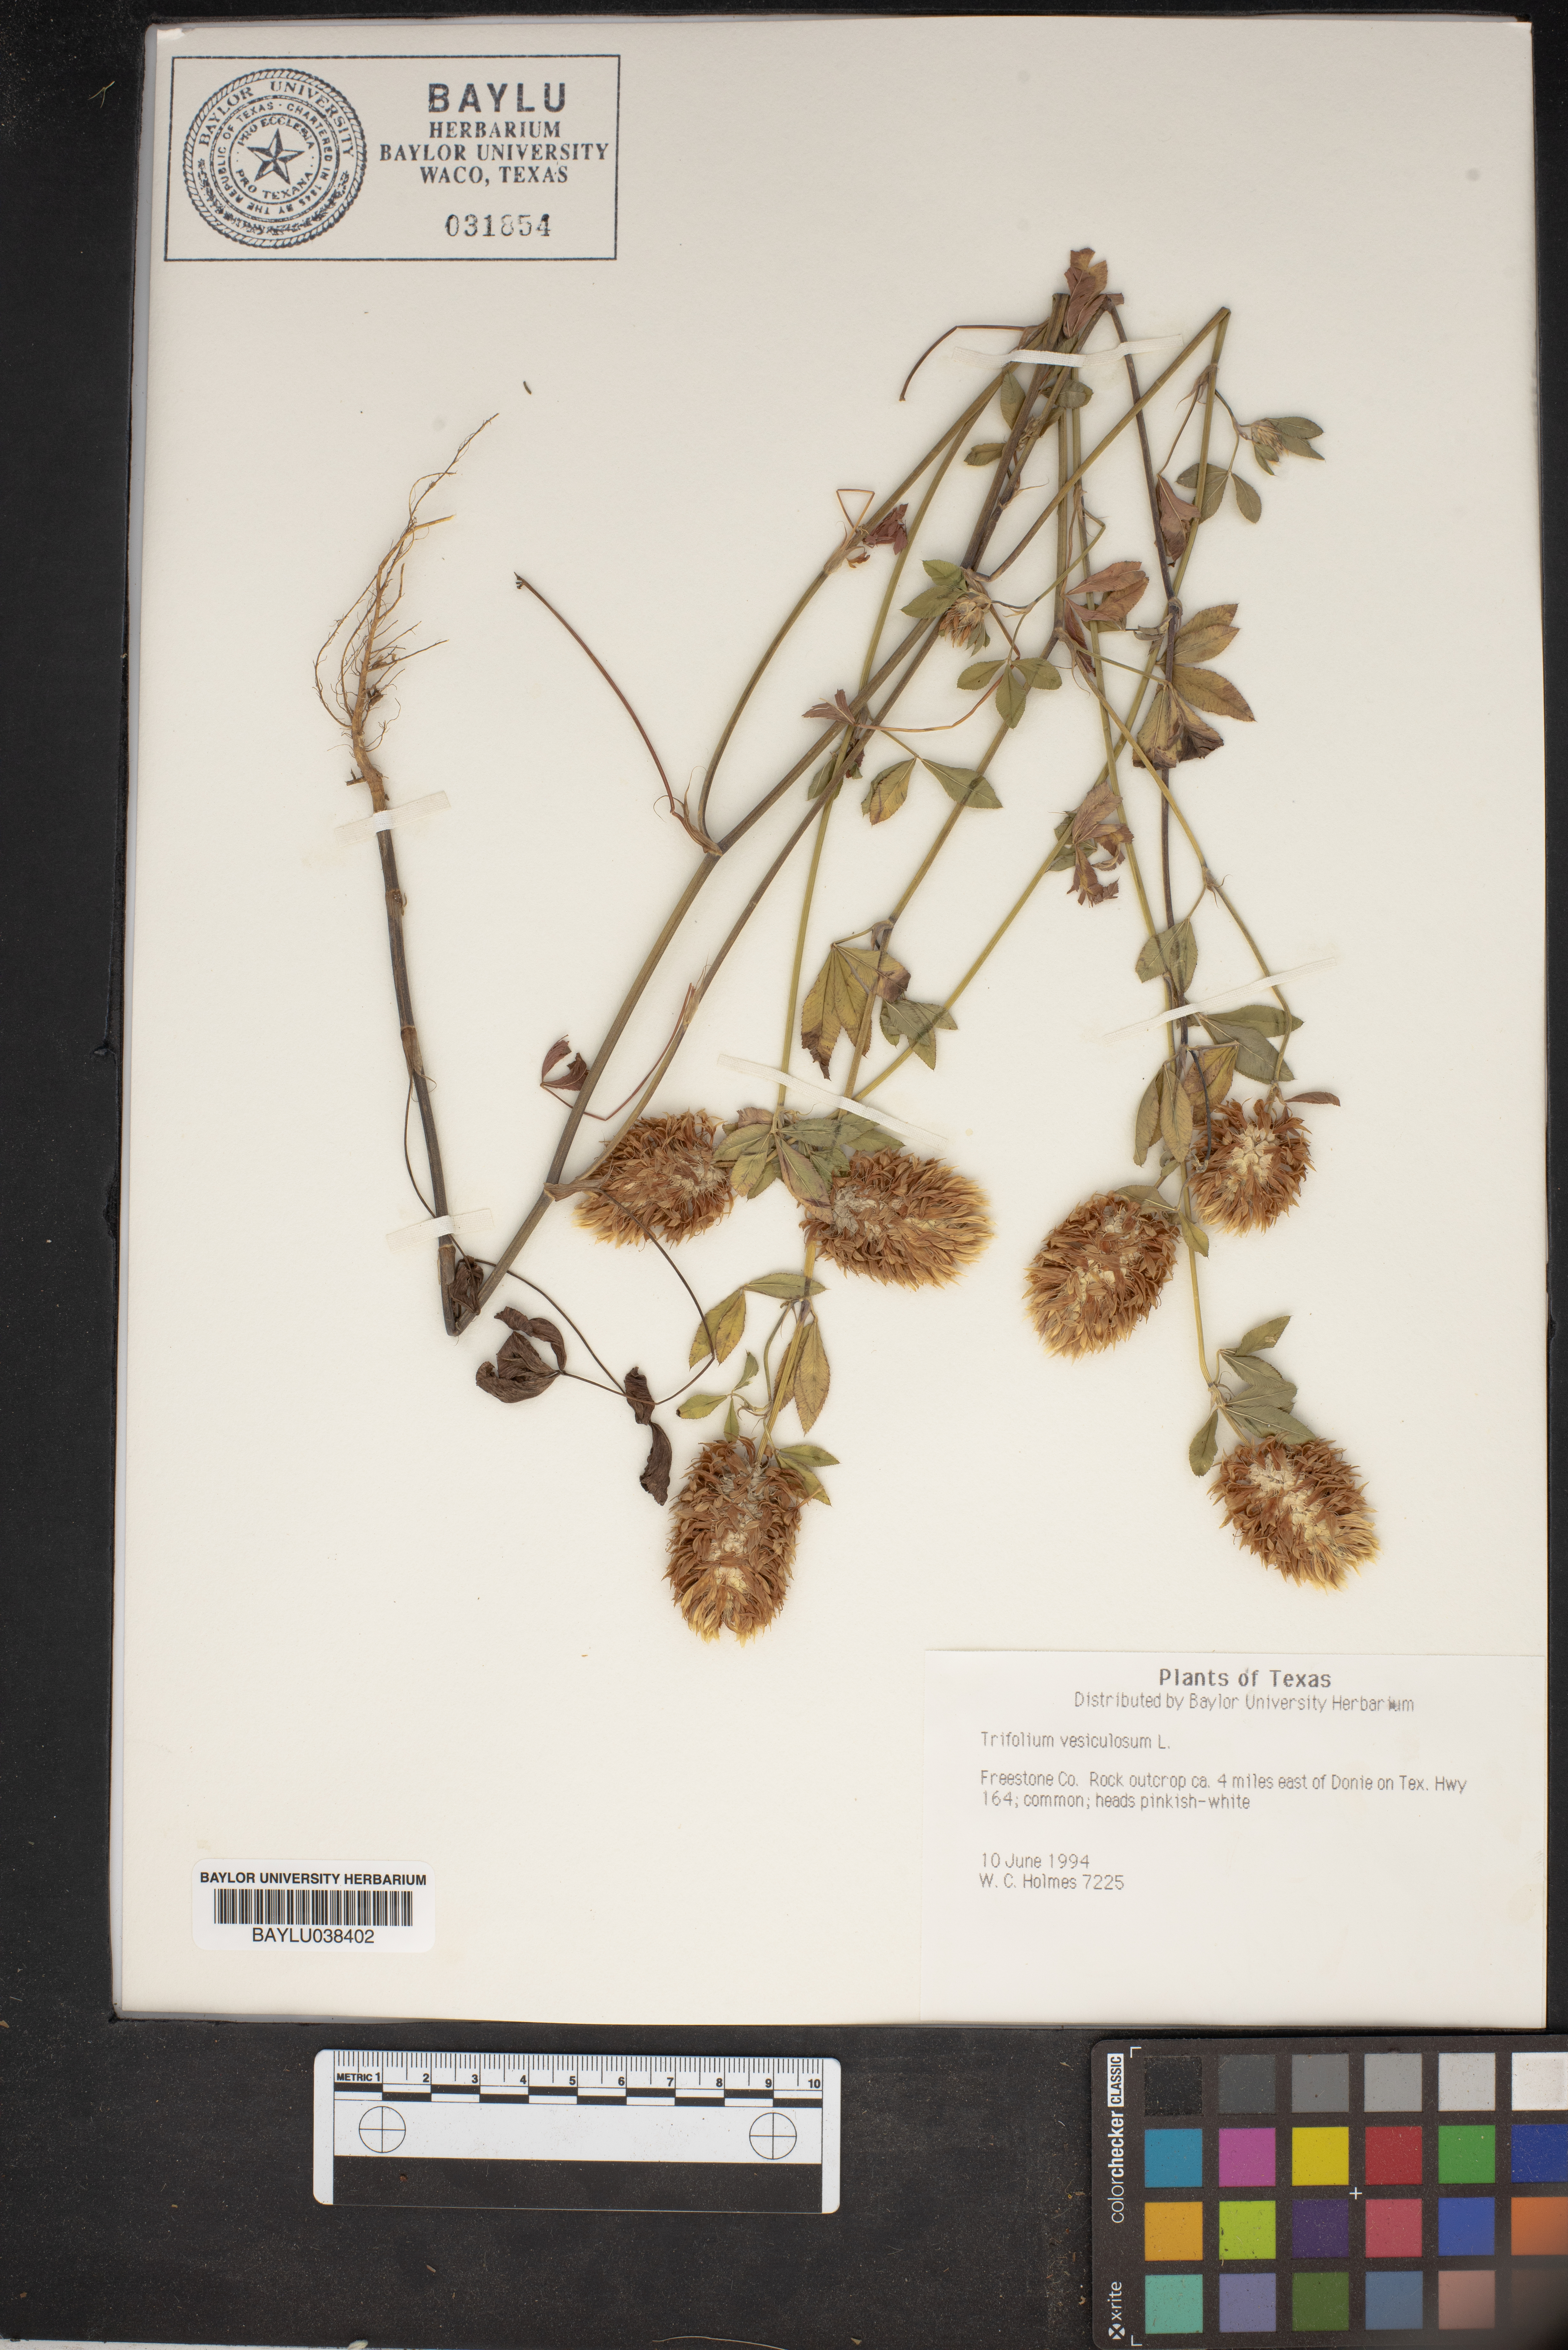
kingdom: Plantae
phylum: Tracheophyta
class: Magnoliopsida
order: Fabales
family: Fabaceae
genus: Trifolium
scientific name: Trifolium vesiculosum
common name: Arrowleaf clover
